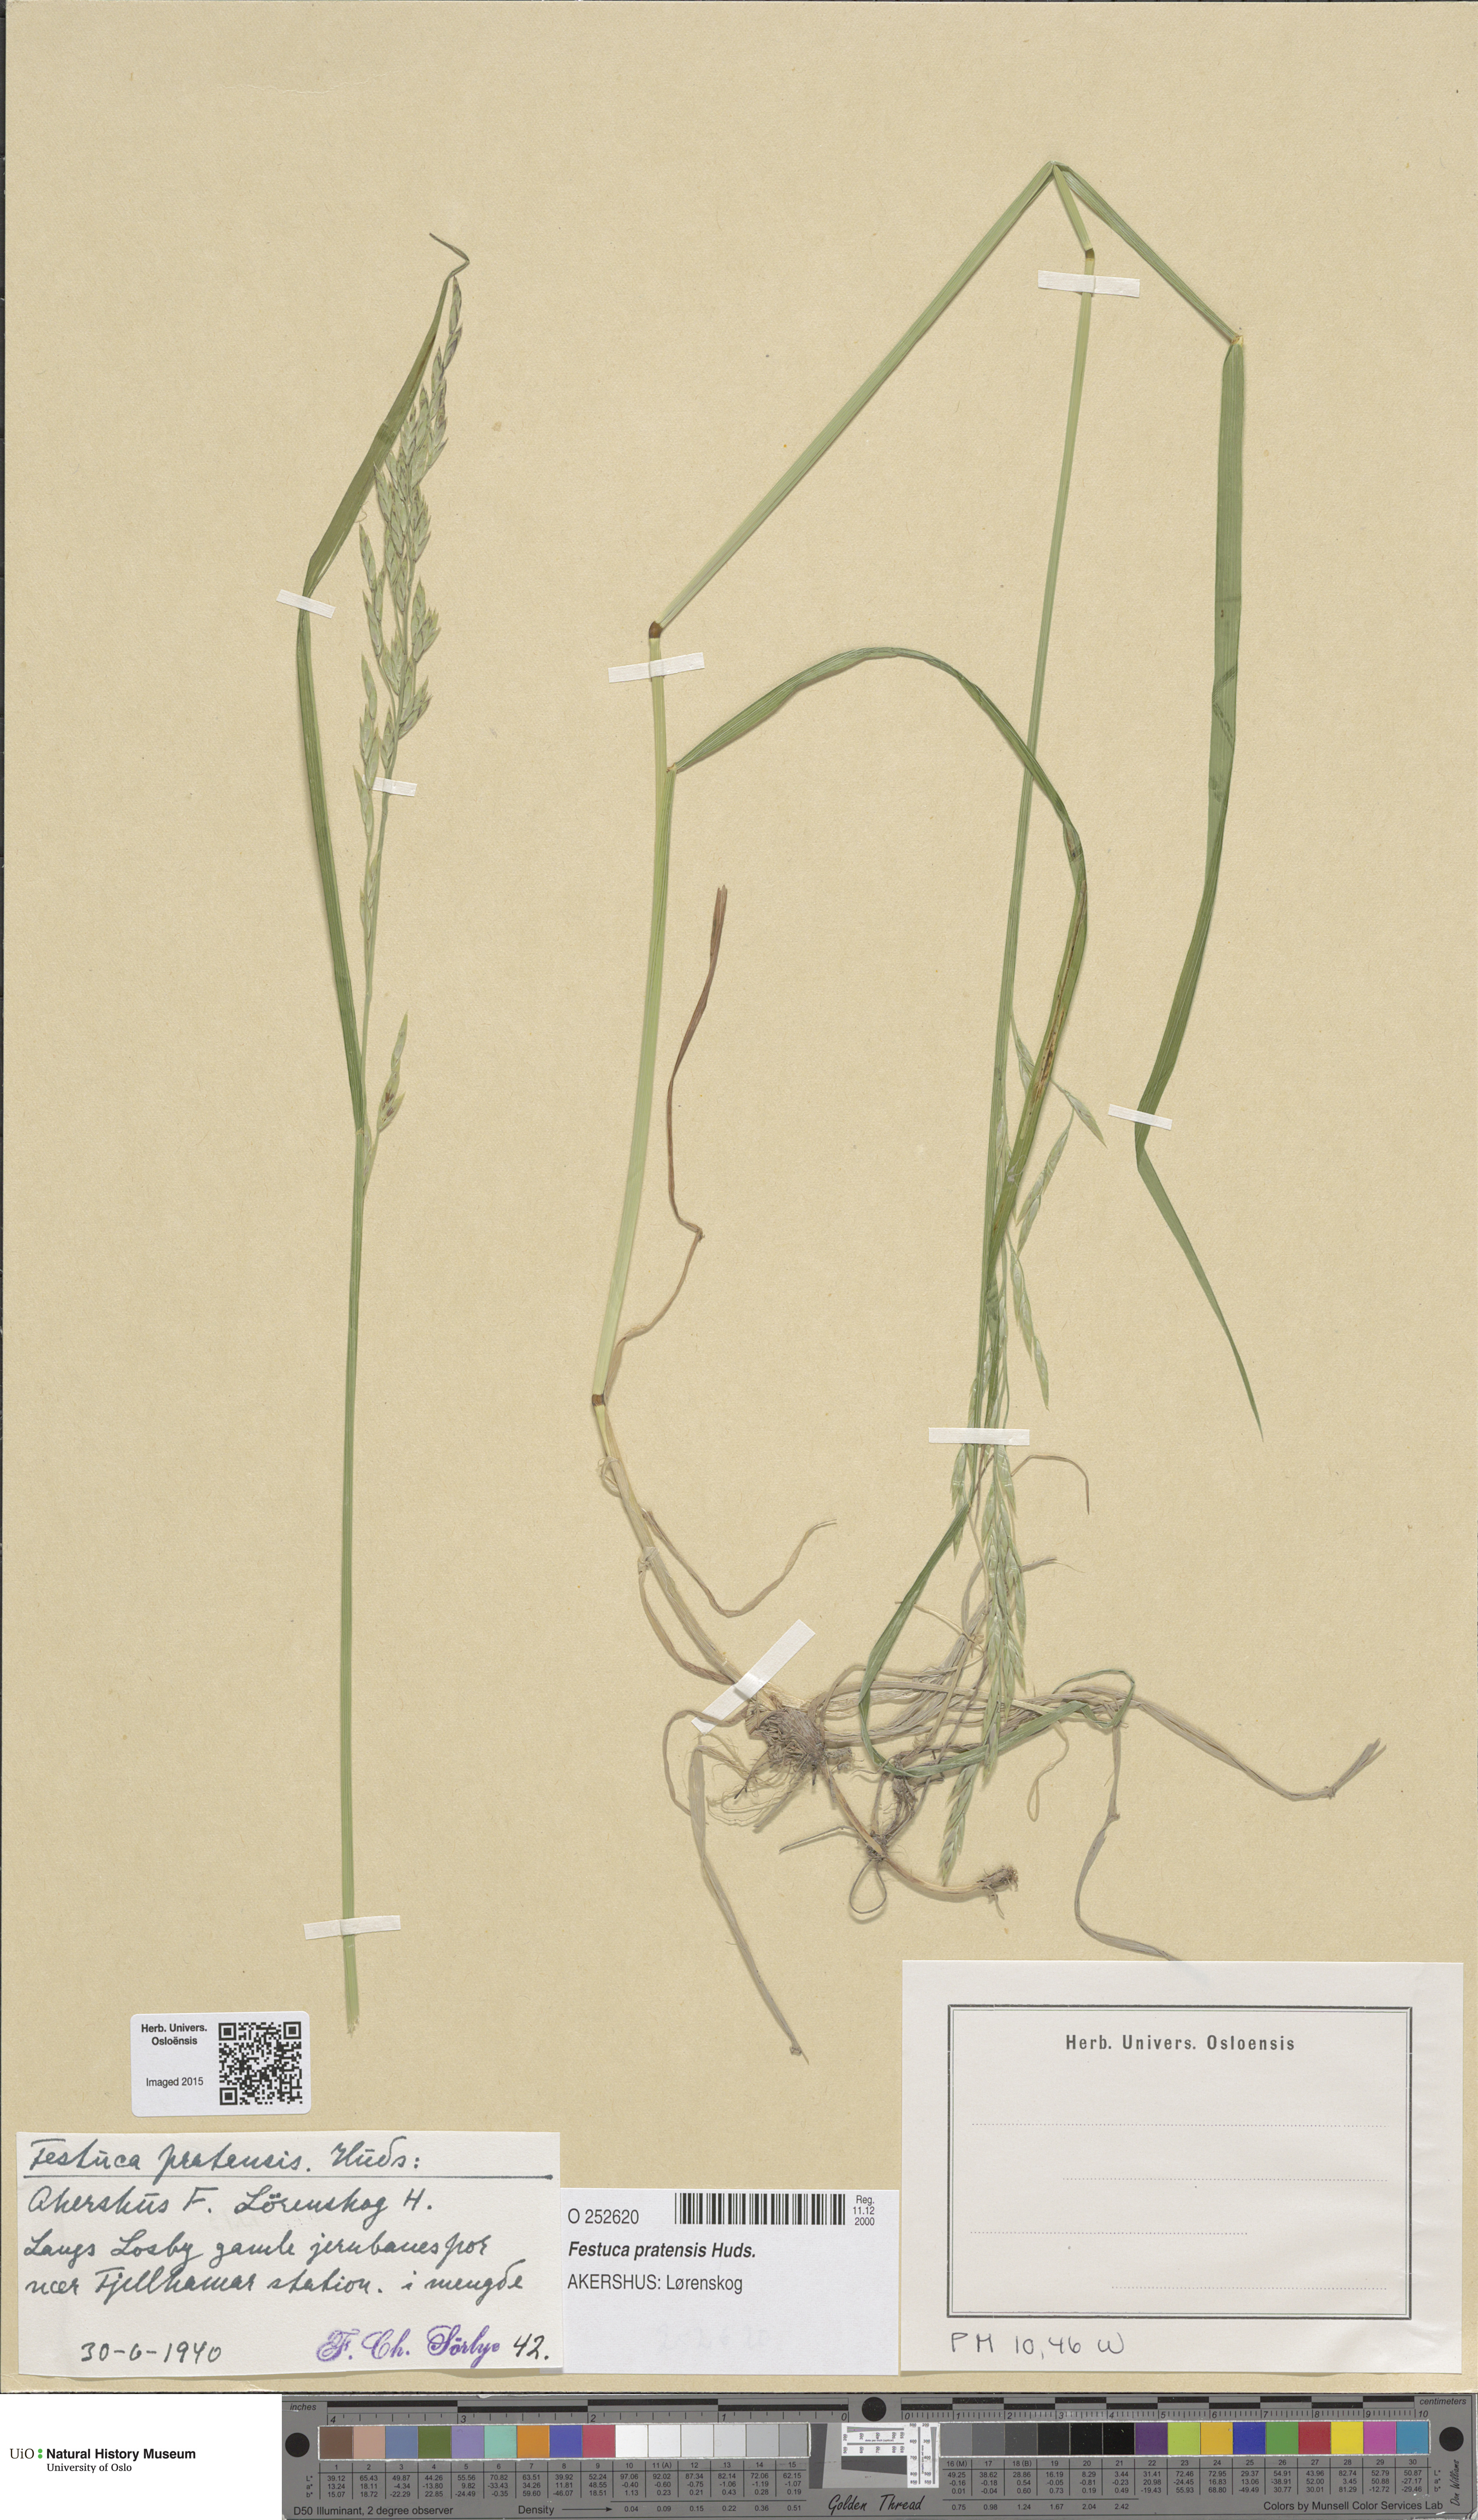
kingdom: Plantae
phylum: Tracheophyta
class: Liliopsida
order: Poales
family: Poaceae
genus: Lolium
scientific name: Lolium pratense
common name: Dover grass
